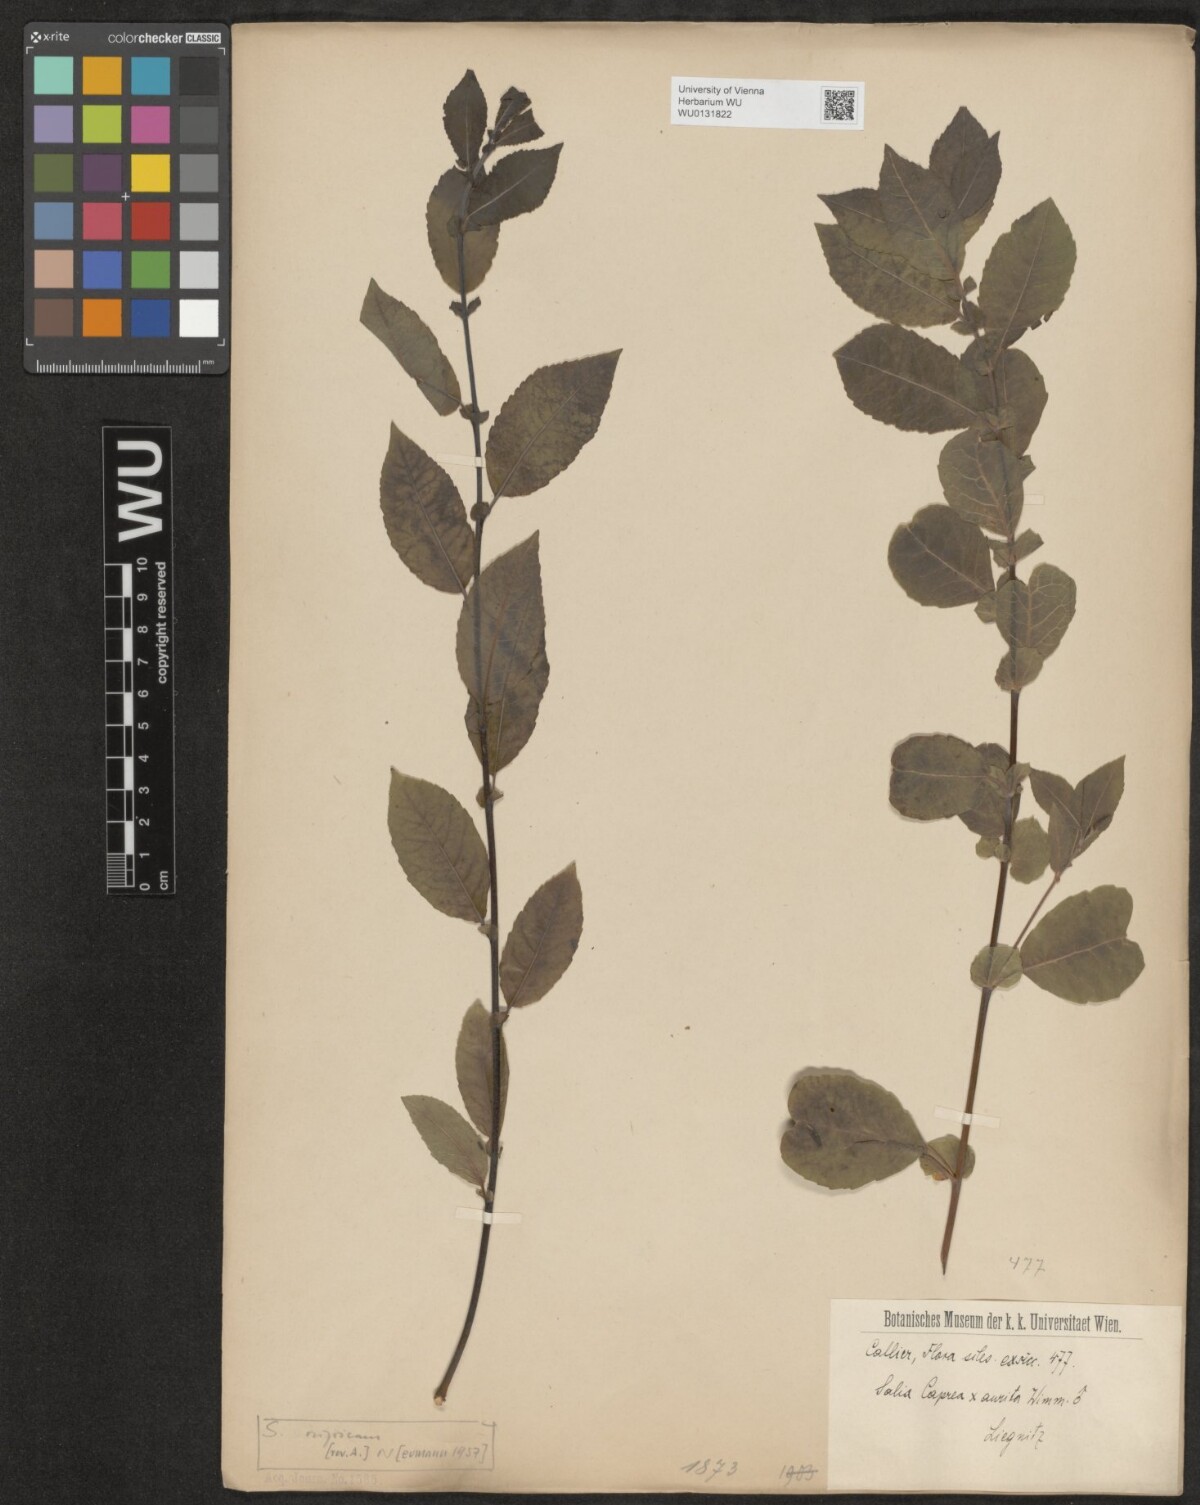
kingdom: Plantae
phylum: Tracheophyta
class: Magnoliopsida
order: Malpighiales
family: Salicaceae
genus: Salix
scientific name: Salix myrsinifolia
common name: Dark-leaved willow
